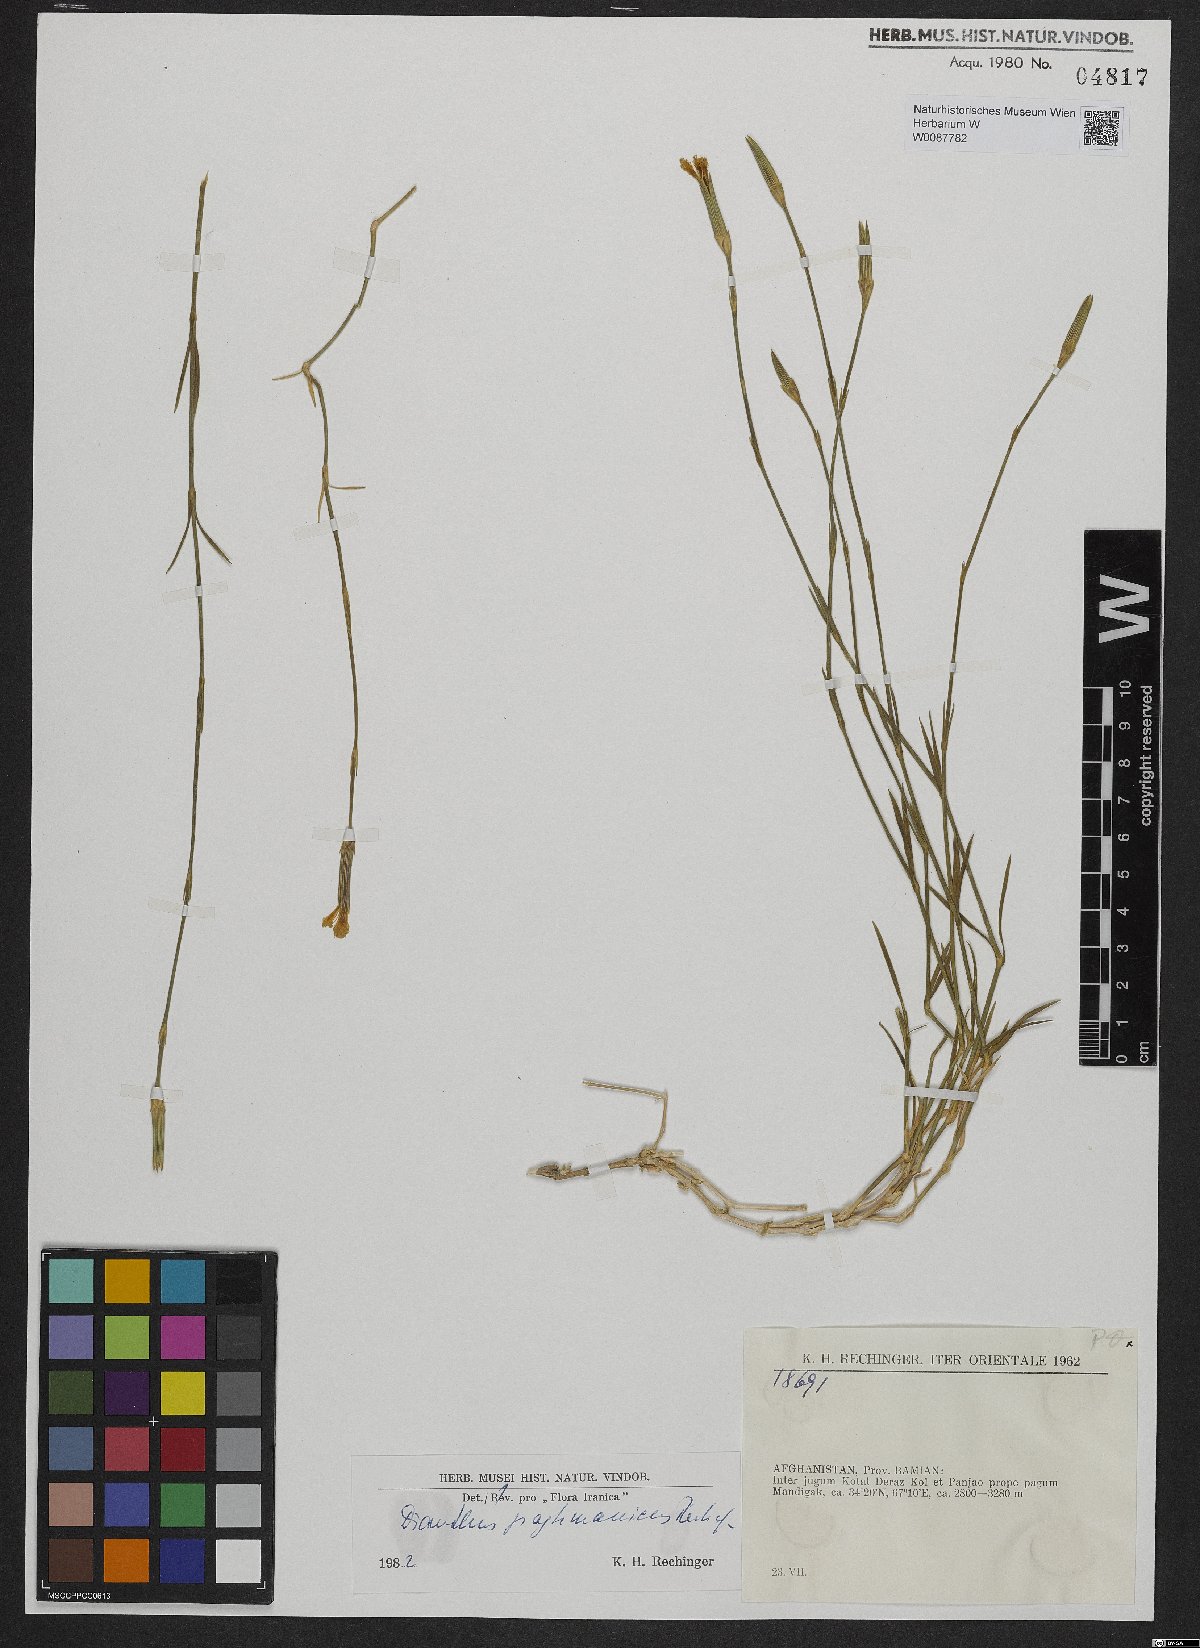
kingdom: Plantae
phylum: Tracheophyta
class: Magnoliopsida
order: Caryophyllales
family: Caryophyllaceae
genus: Dianthus
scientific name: Dianthus paghmanicus
